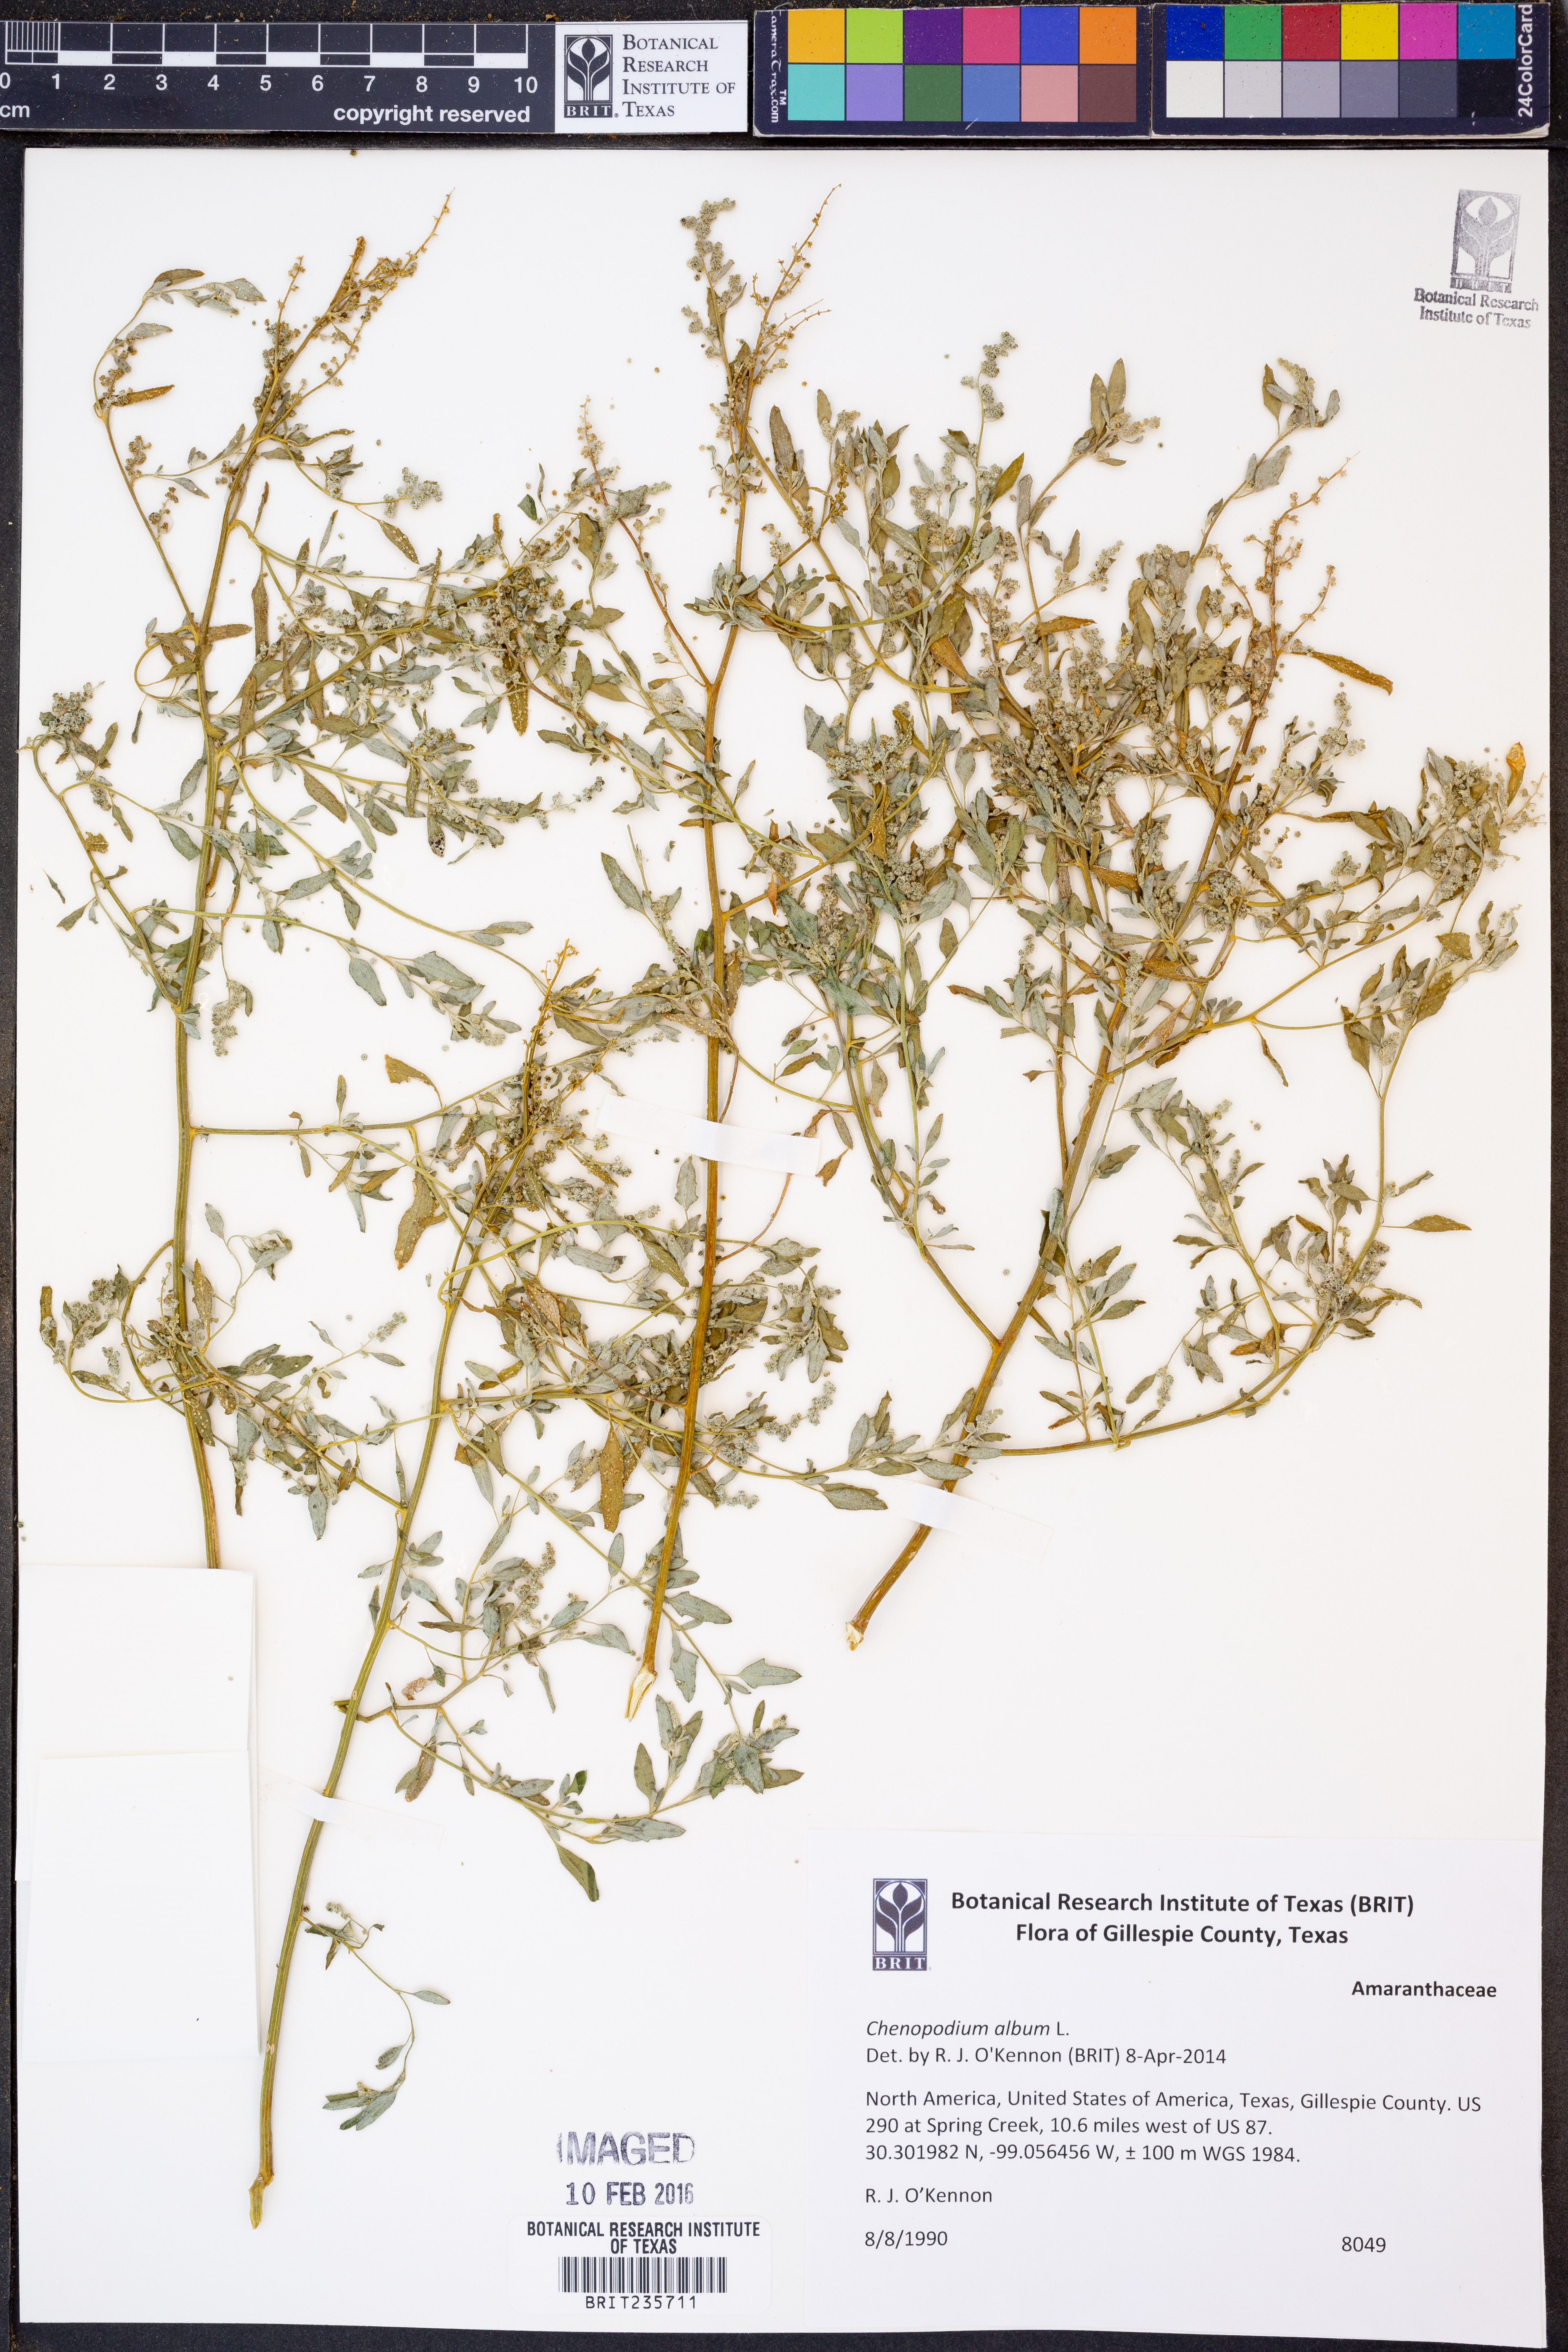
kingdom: Plantae
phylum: Tracheophyta
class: Magnoliopsida
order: Caryophyllales
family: Amaranthaceae
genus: Chenopodium
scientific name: Chenopodium album
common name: Fat-hen
